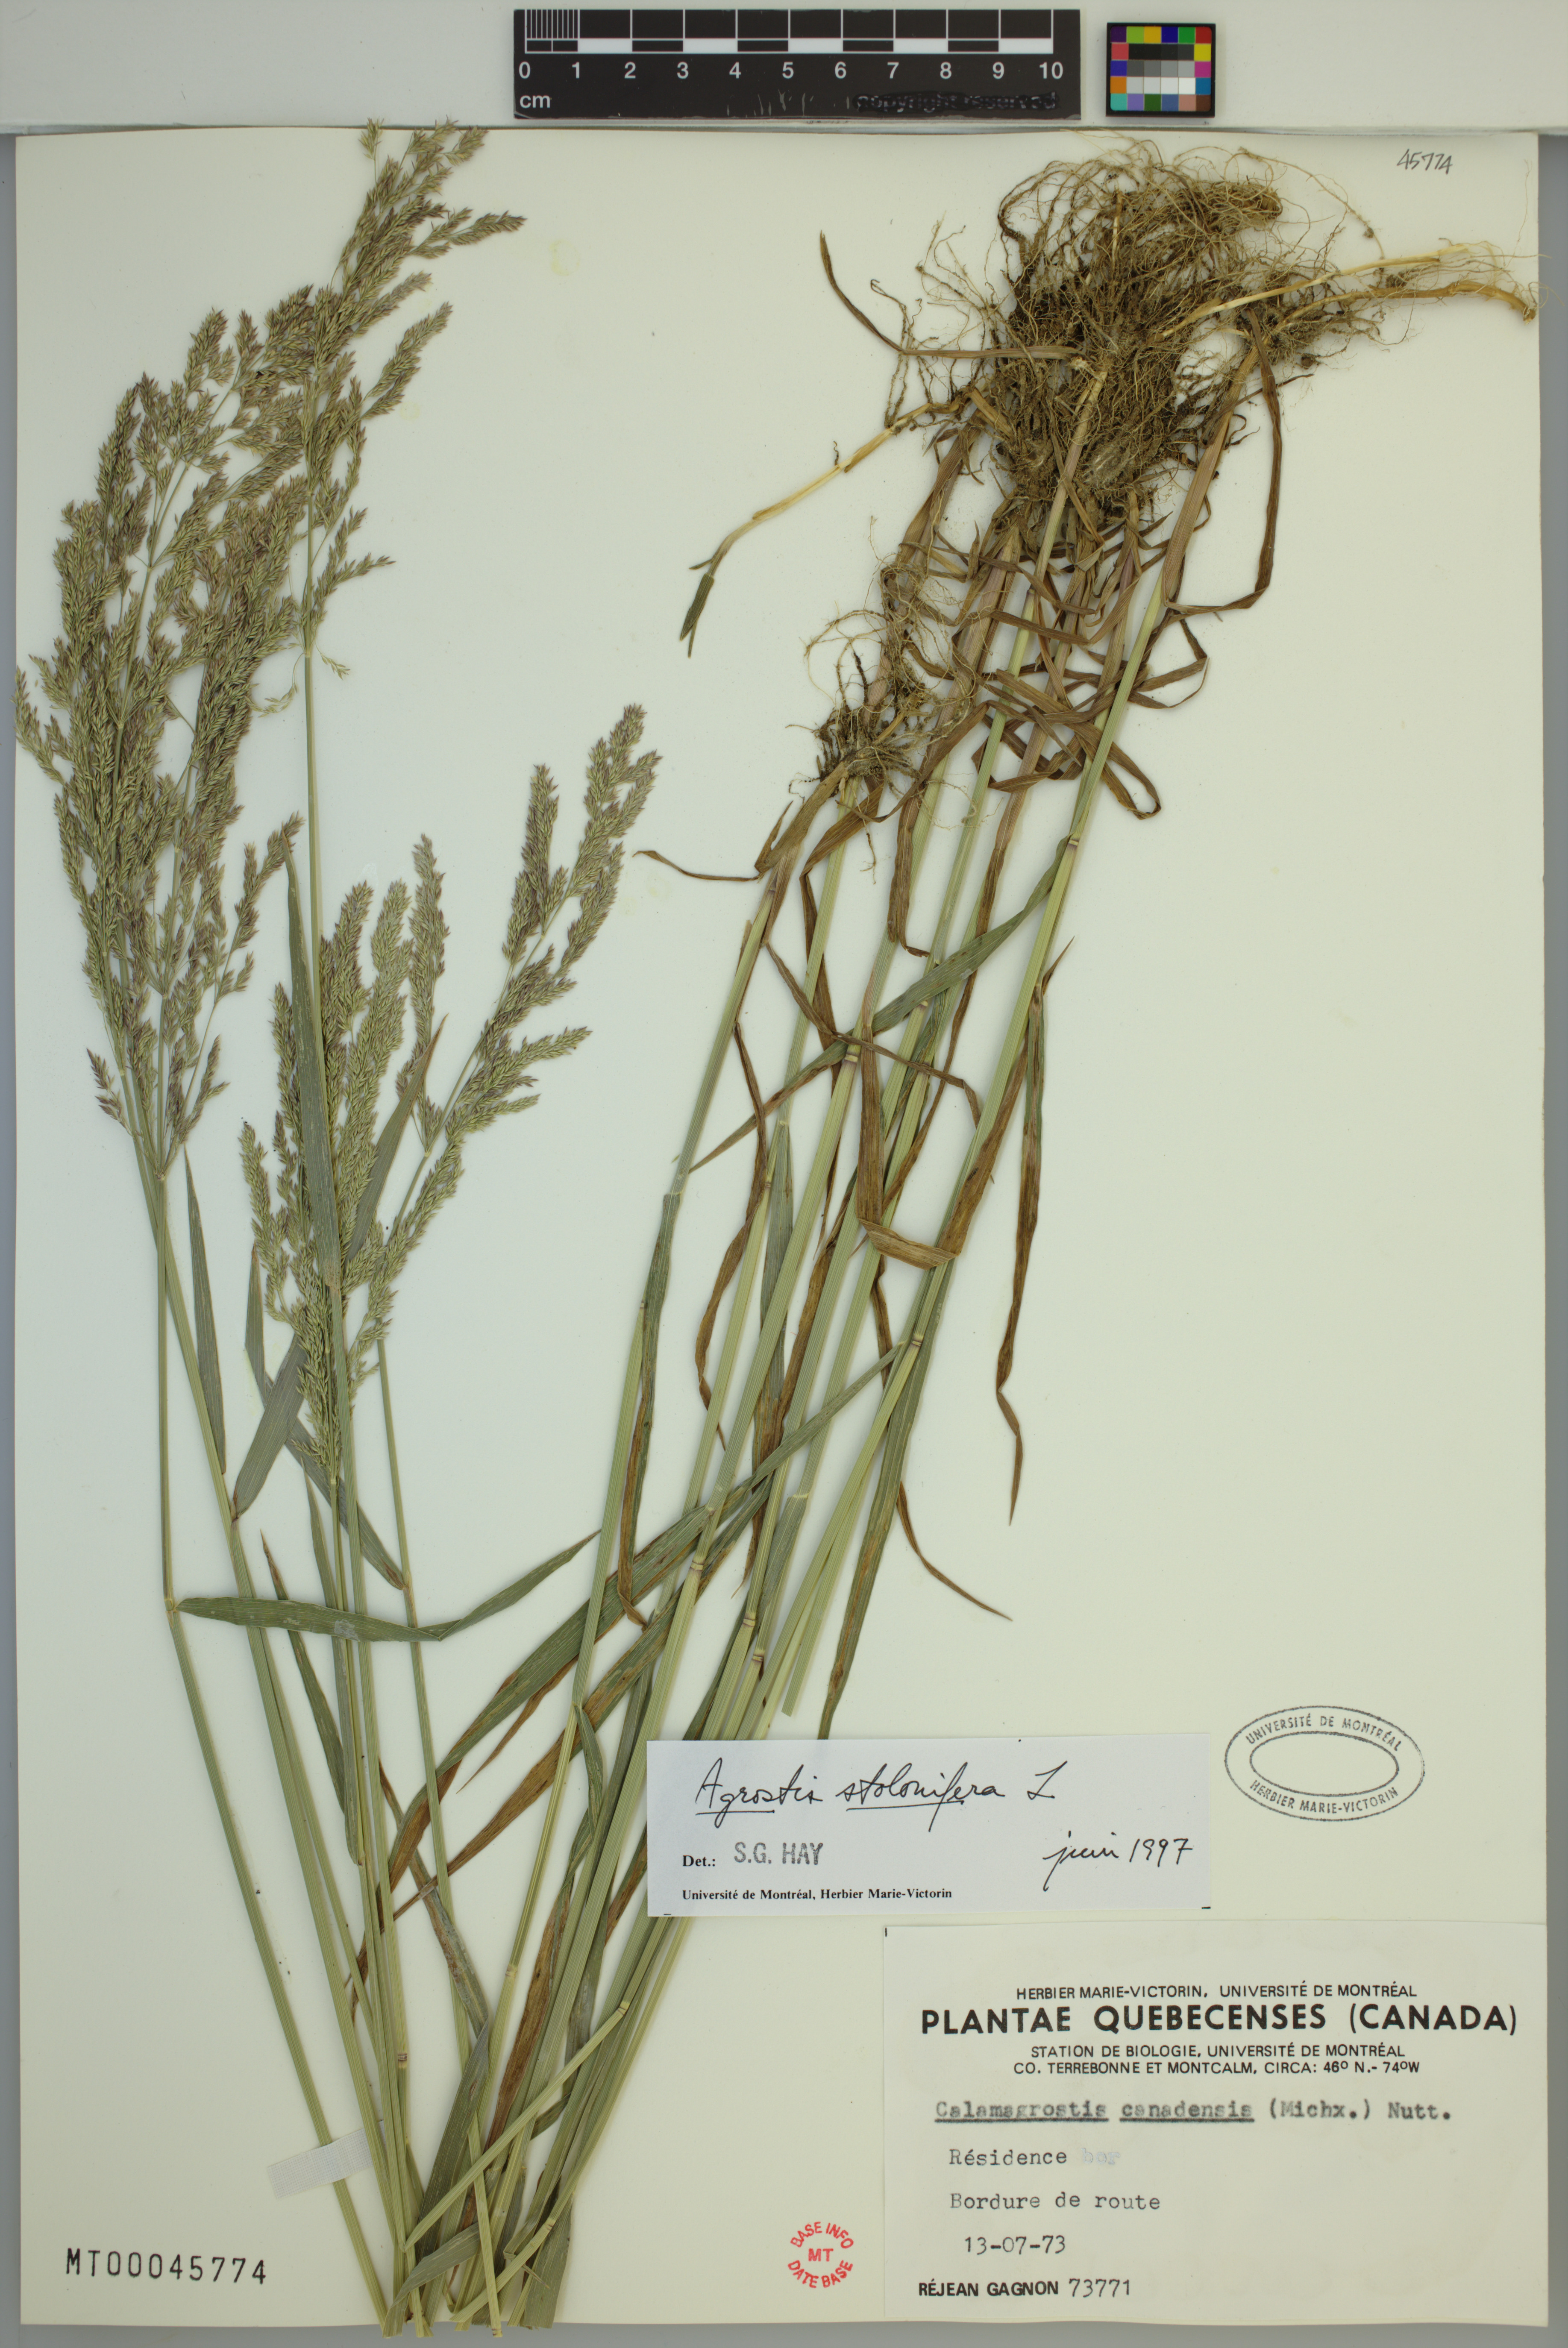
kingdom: Plantae
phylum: Tracheophyta
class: Liliopsida
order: Poales
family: Poaceae
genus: Agrostis
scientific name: Agrostis stolonifera
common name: Creeping bentgrass
